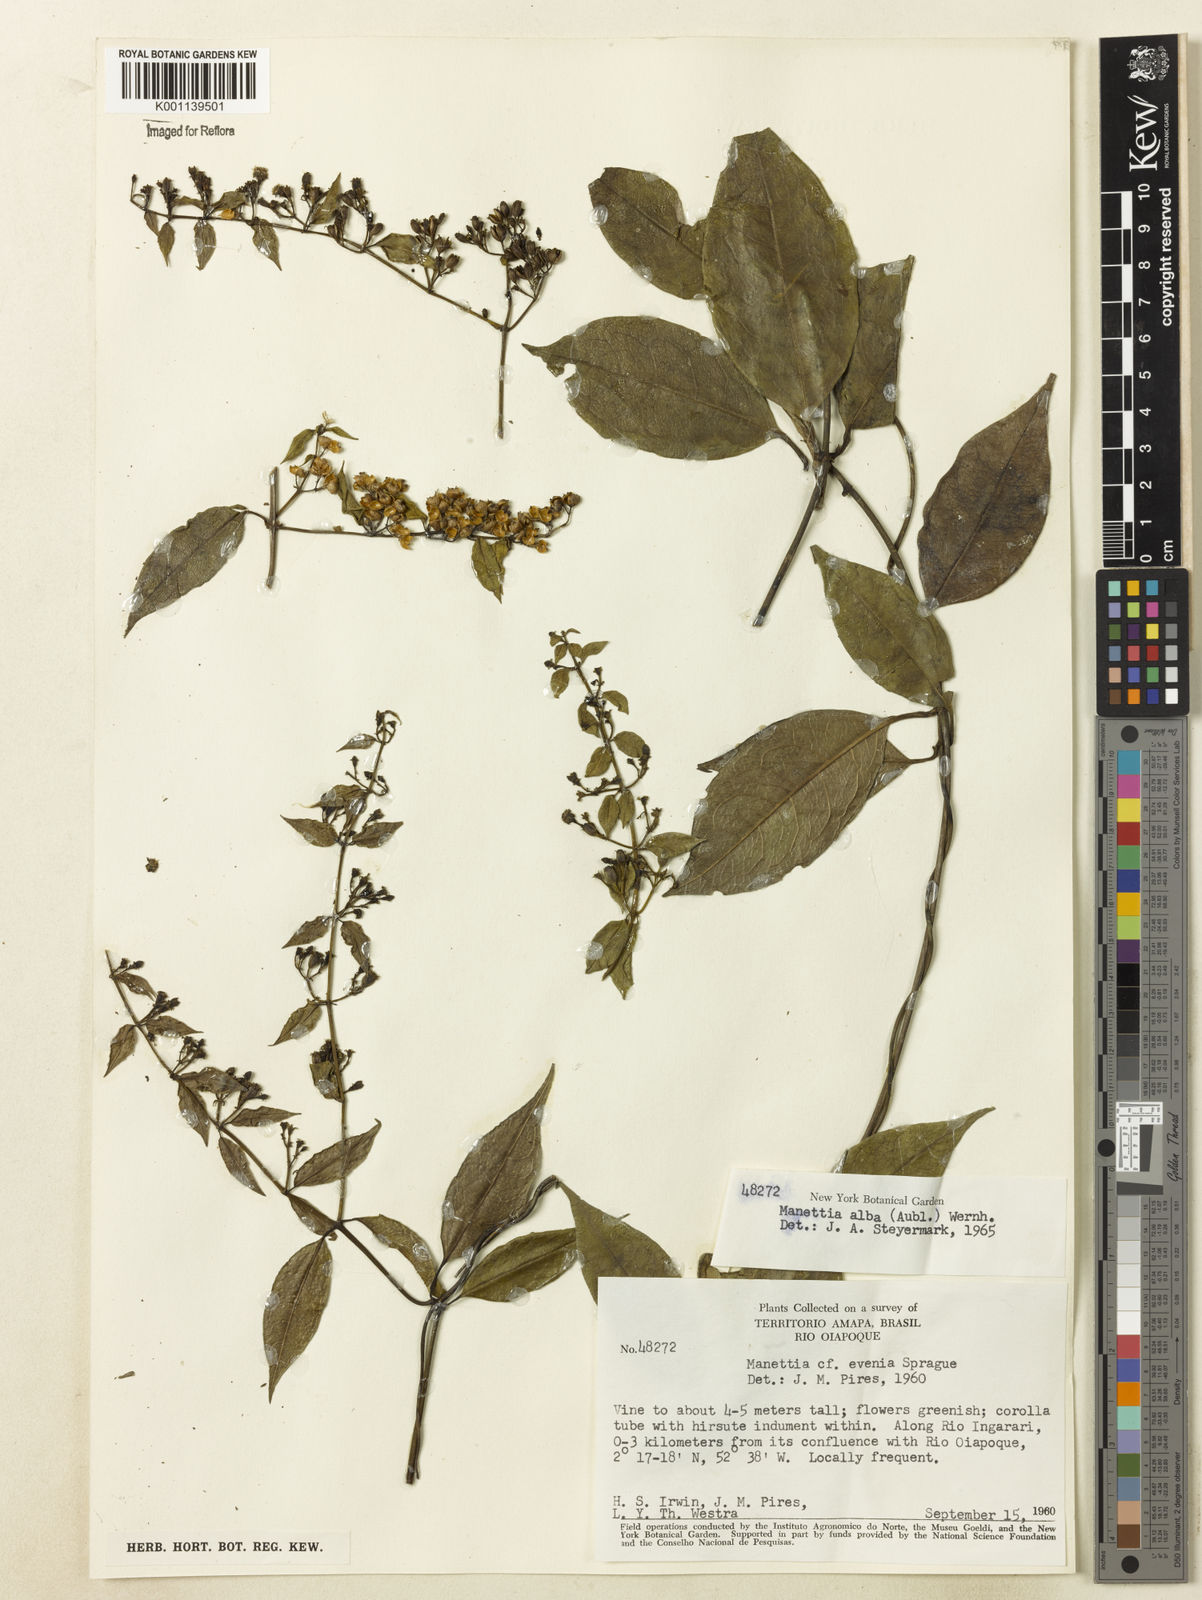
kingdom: Plantae
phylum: Tracheophyta
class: Magnoliopsida
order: Gentianales
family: Rubiaceae
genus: Manettia
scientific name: Manettia
